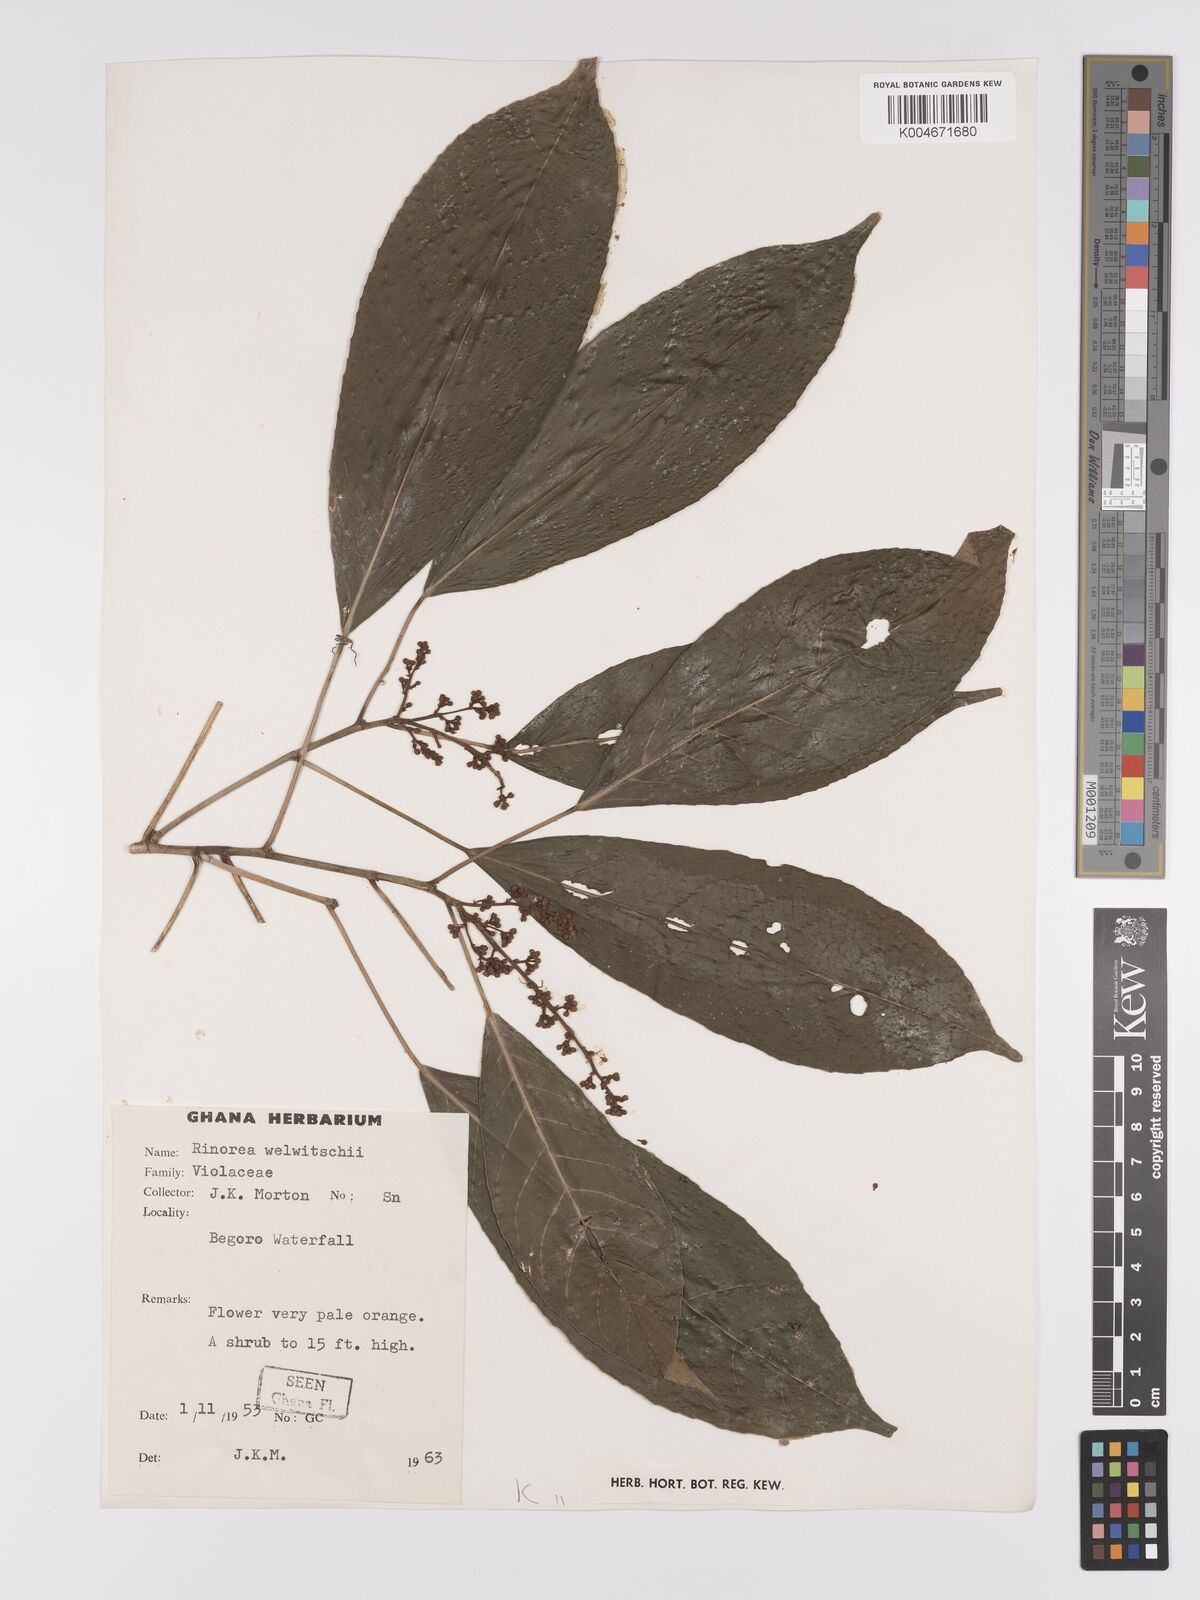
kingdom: Plantae
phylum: Tracheophyta
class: Magnoliopsida
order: Malpighiales
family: Violaceae
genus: Rinorea
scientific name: Rinorea welwitschii
